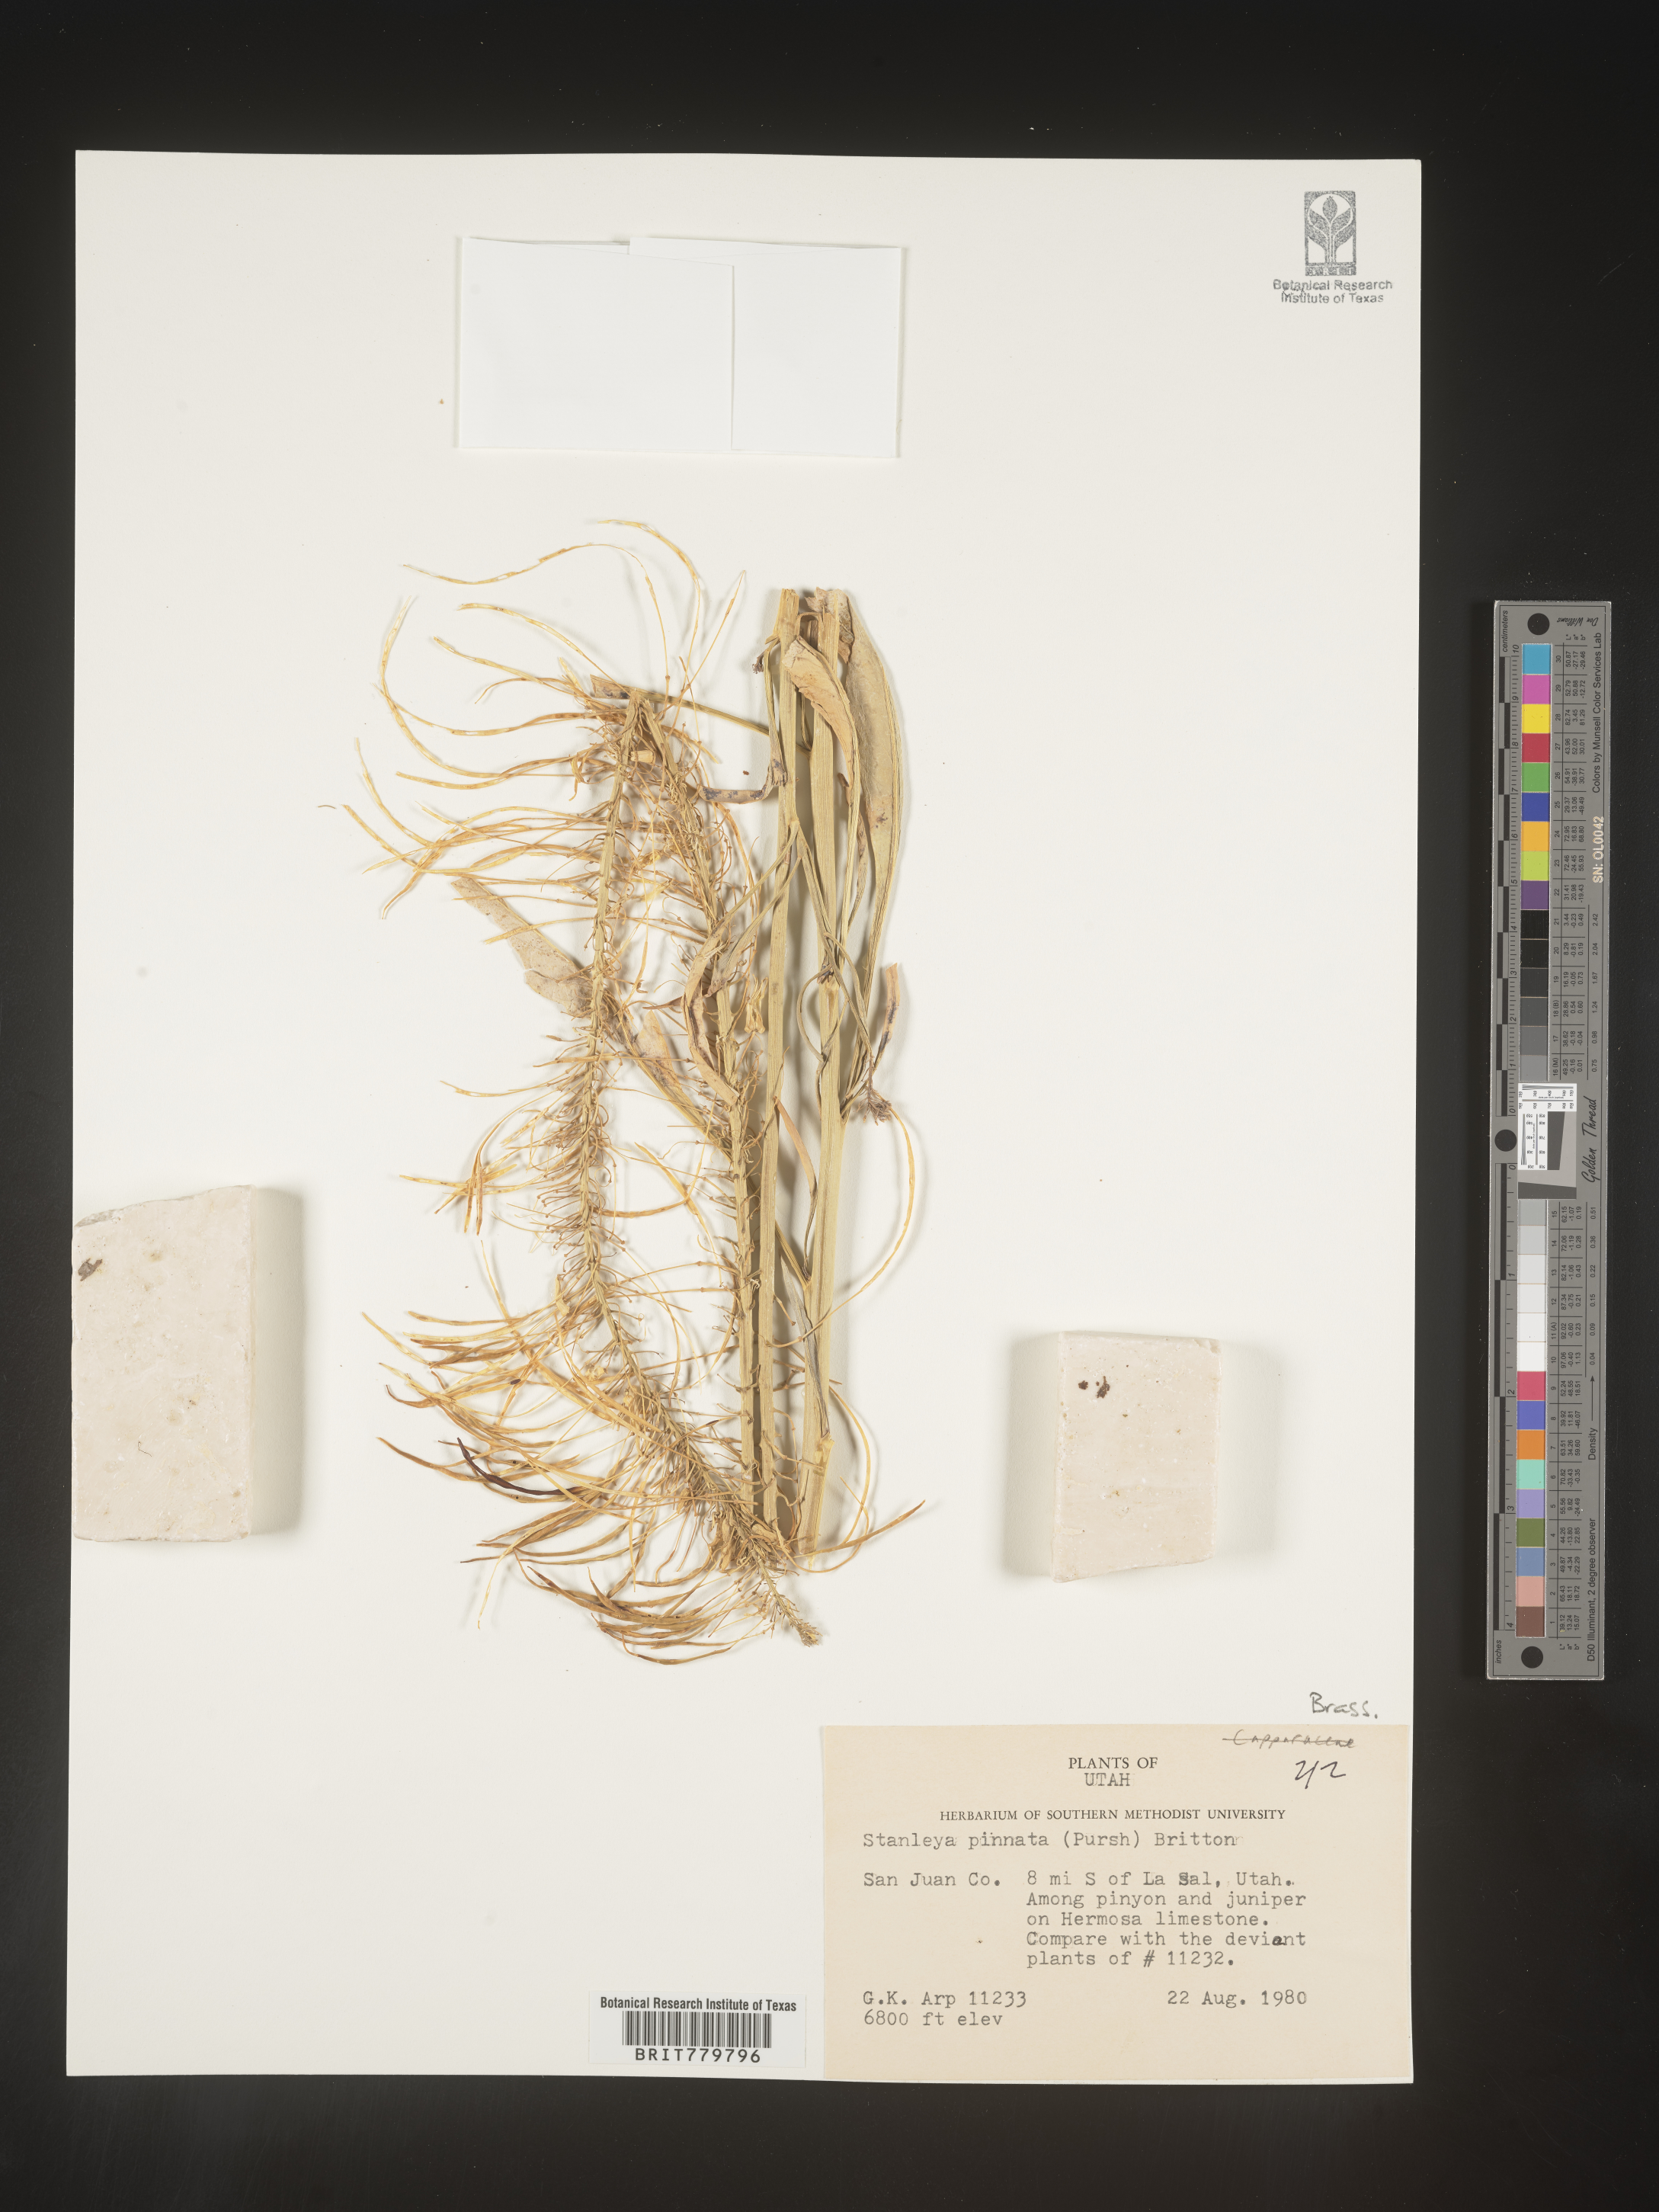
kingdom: Plantae
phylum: Tracheophyta
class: Magnoliopsida
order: Brassicales
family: Brassicaceae
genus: Stanleya
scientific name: Stanleya pinnata
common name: Prince's-plume
